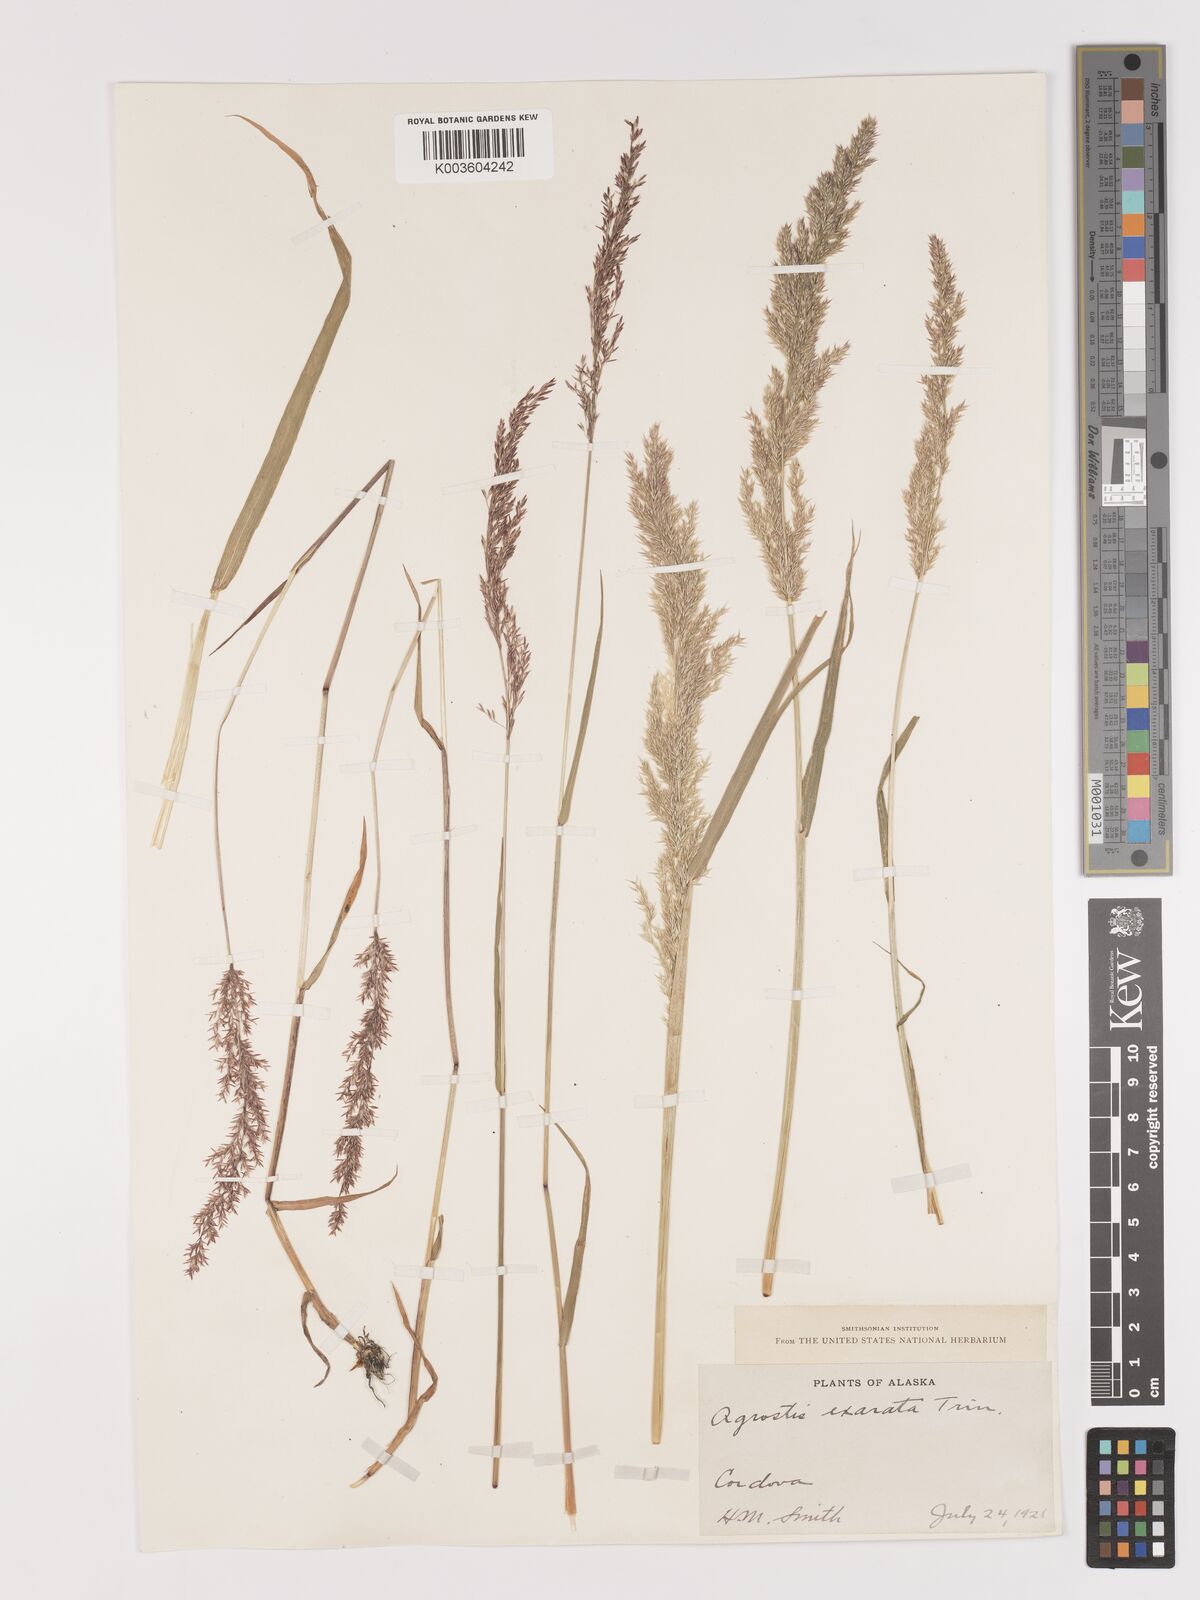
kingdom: Plantae
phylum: Tracheophyta
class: Liliopsida
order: Poales
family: Poaceae
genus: Agrostis
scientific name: Agrostis exarata
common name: Spike bent
